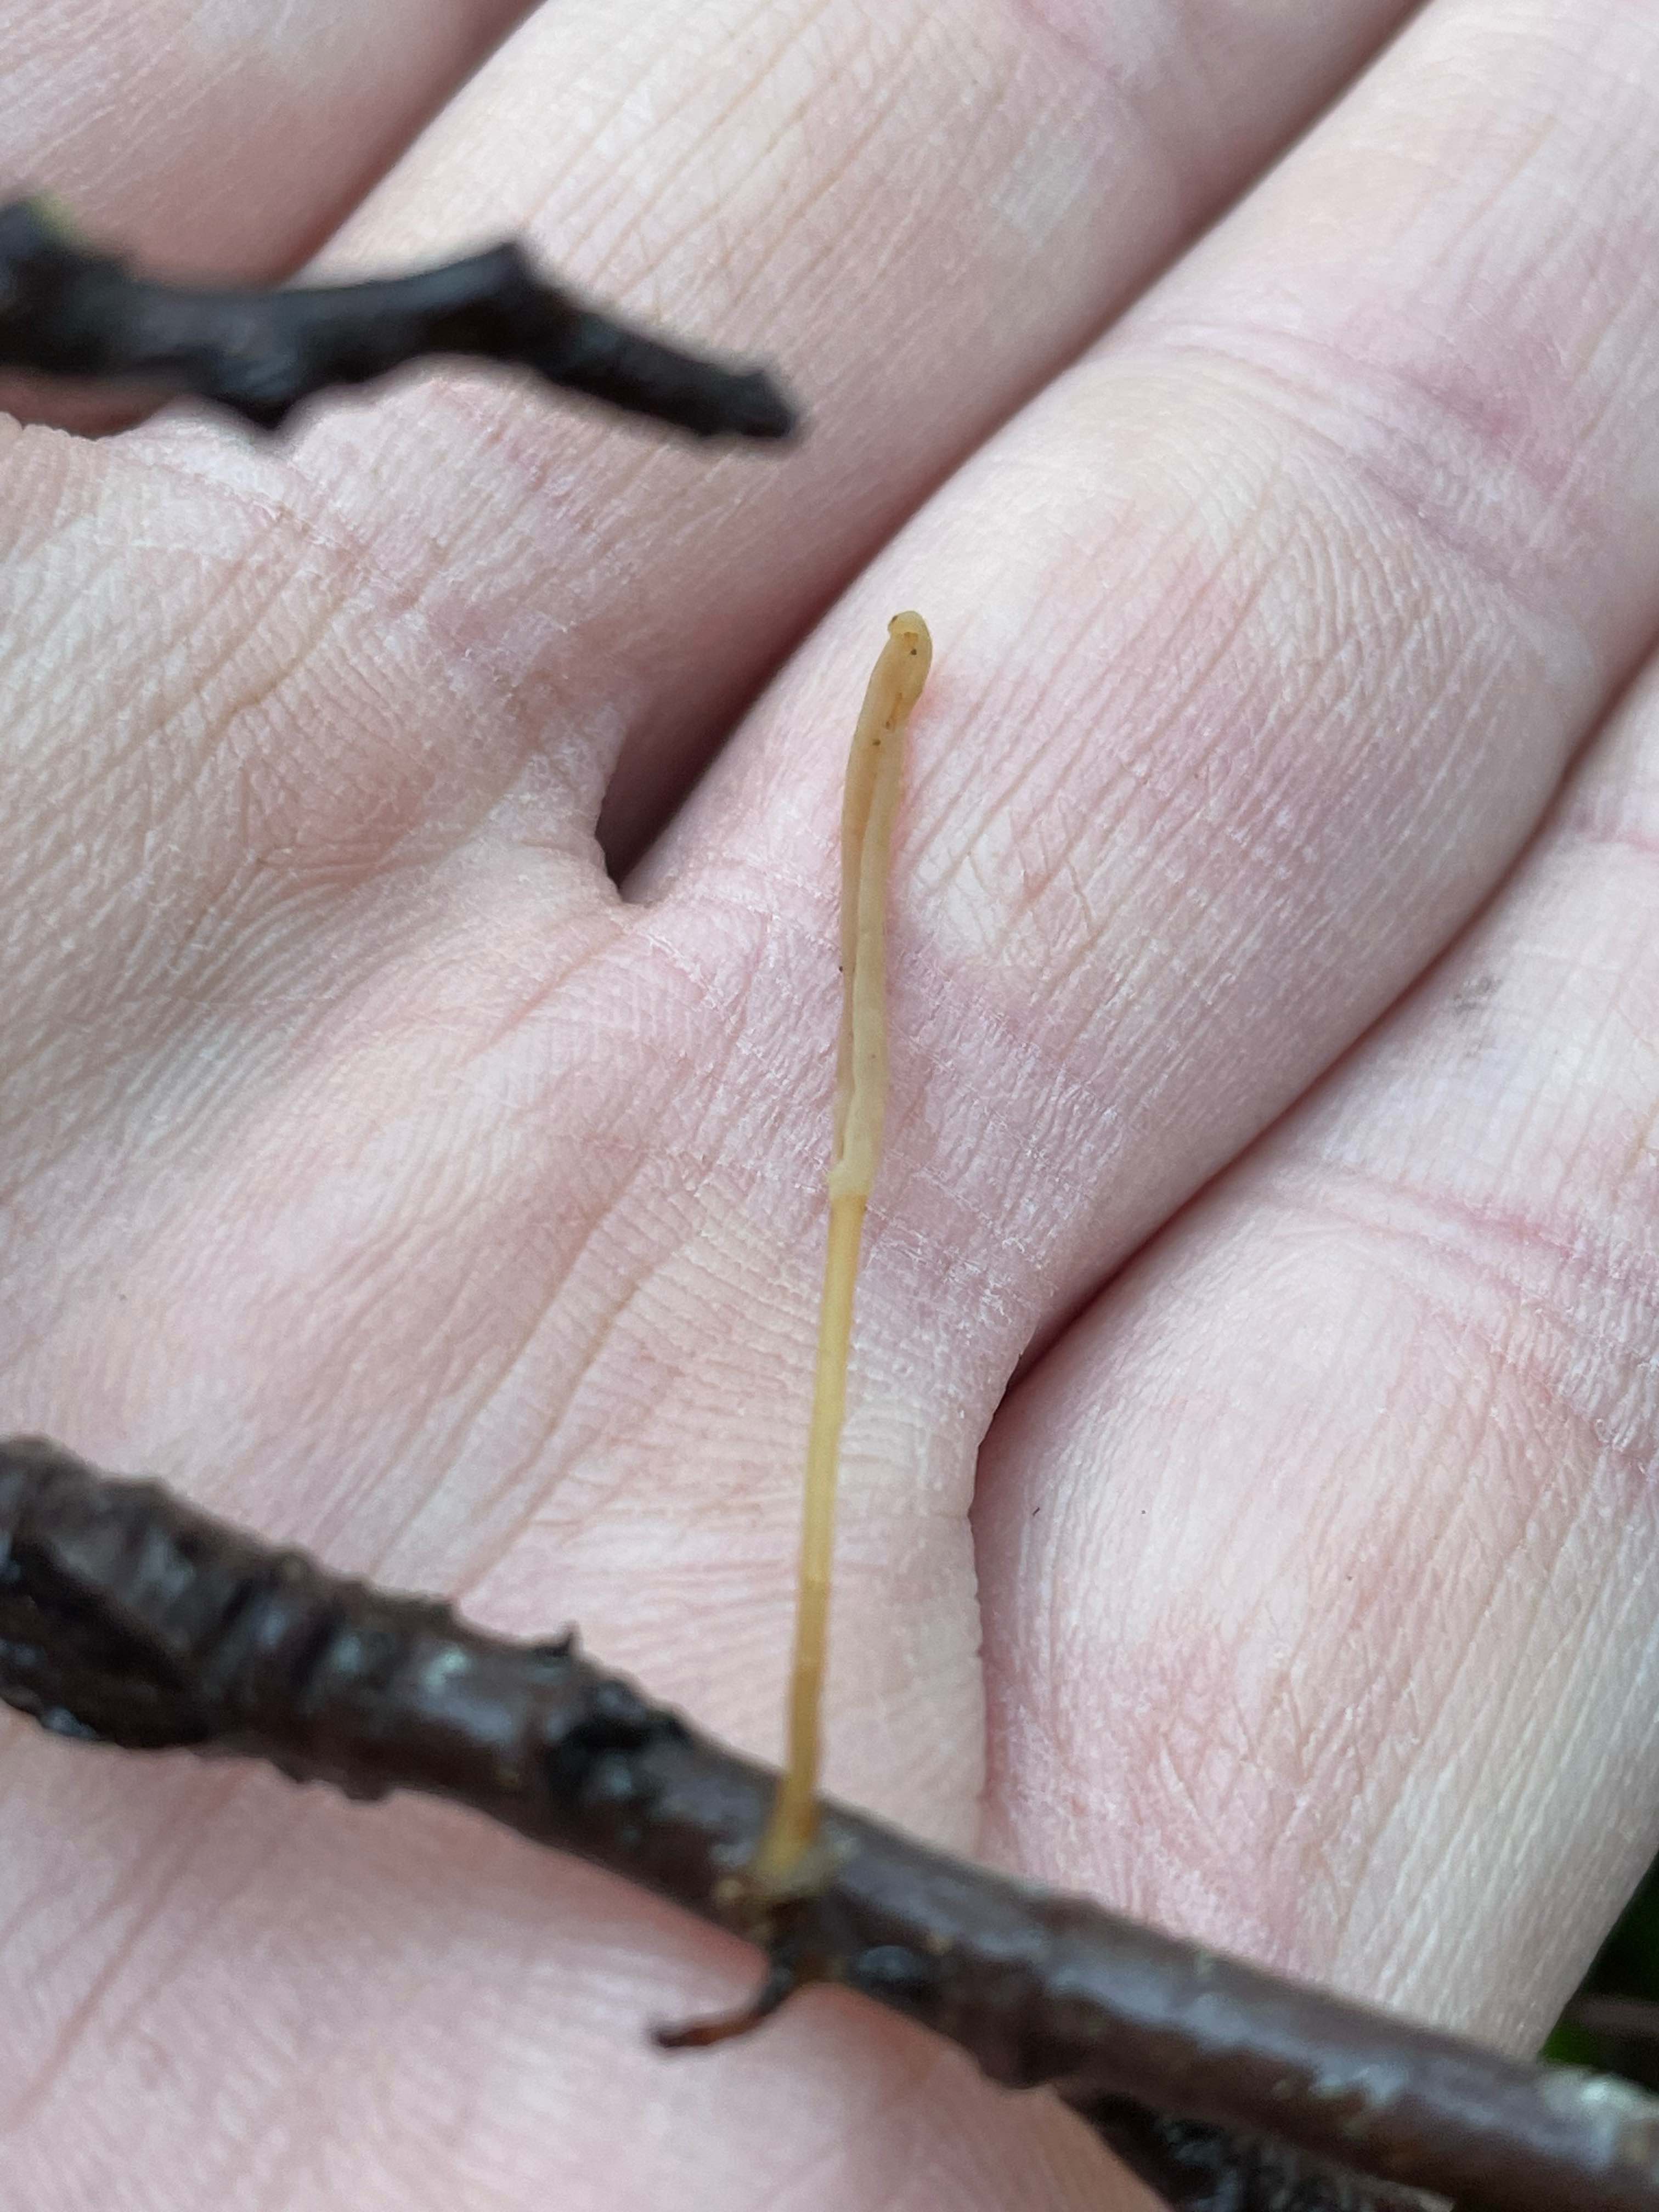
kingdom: Fungi
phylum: Basidiomycota
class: Agaricomycetes
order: Agaricales
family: Typhulaceae
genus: Typhula
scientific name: Typhula fistulosa
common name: pibet rørkølle
